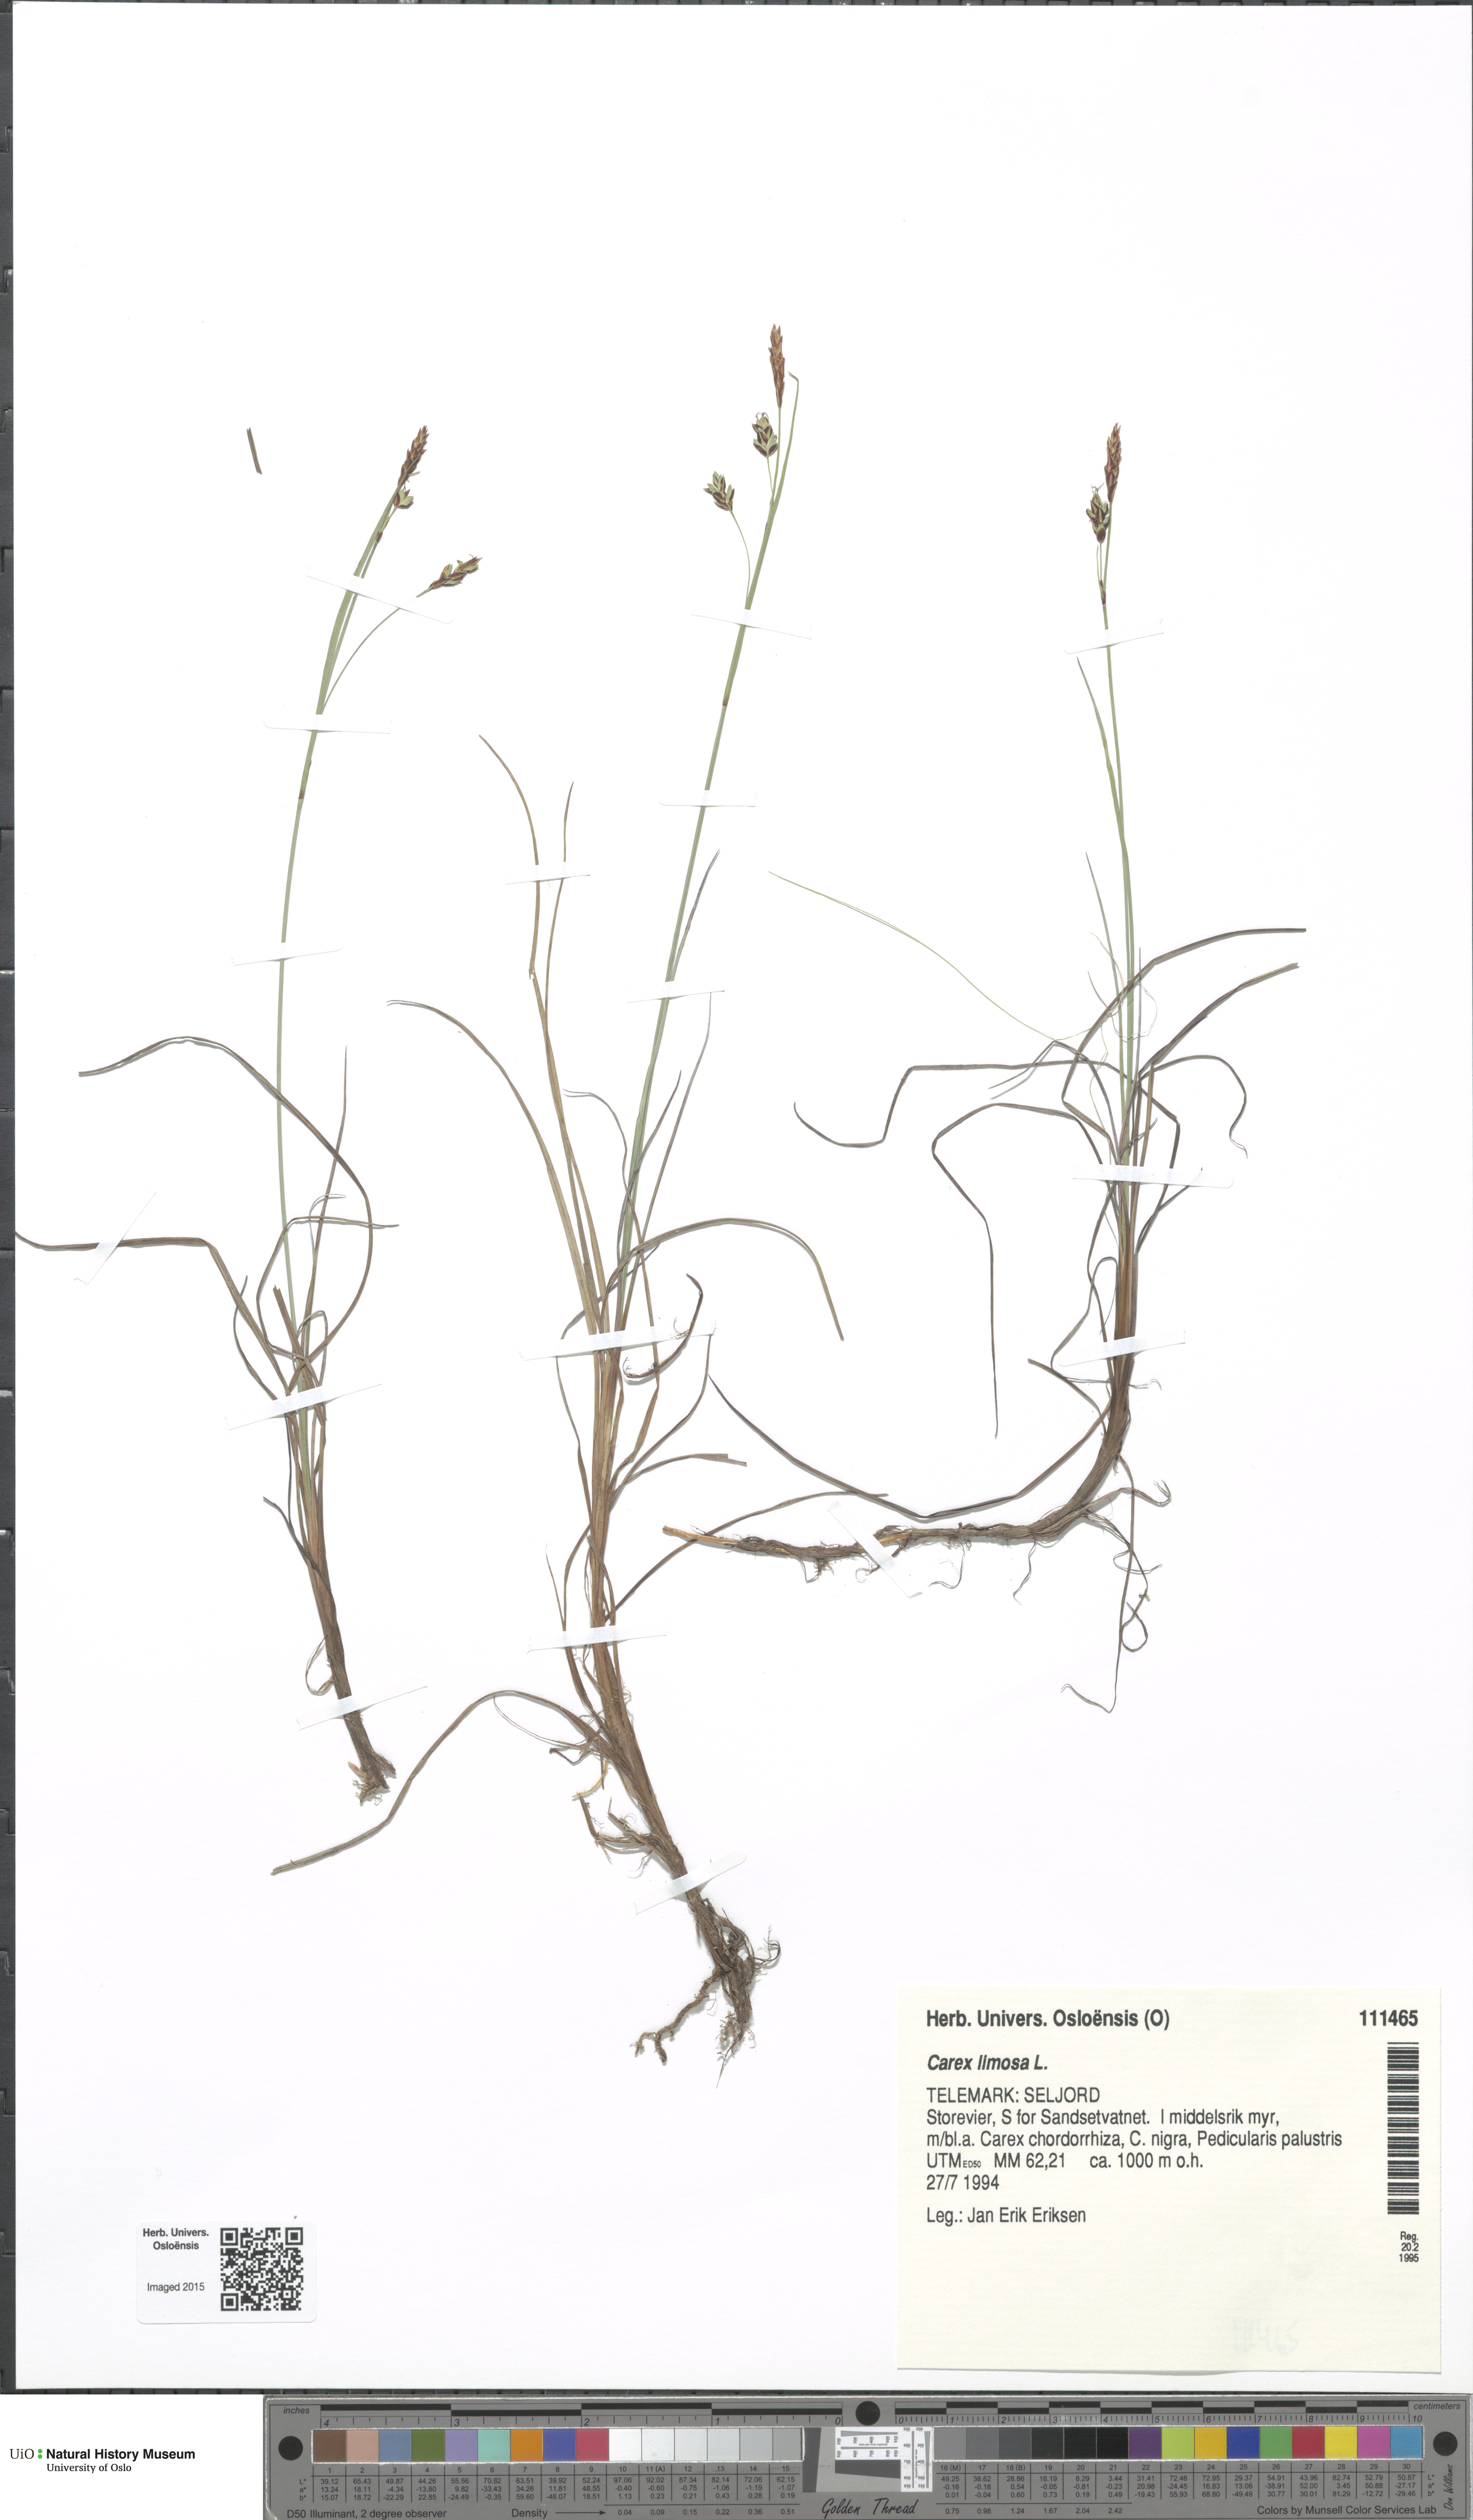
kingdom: Plantae
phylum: Tracheophyta
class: Liliopsida
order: Poales
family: Cyperaceae
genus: Carex
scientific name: Carex limosa
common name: Bog sedge
